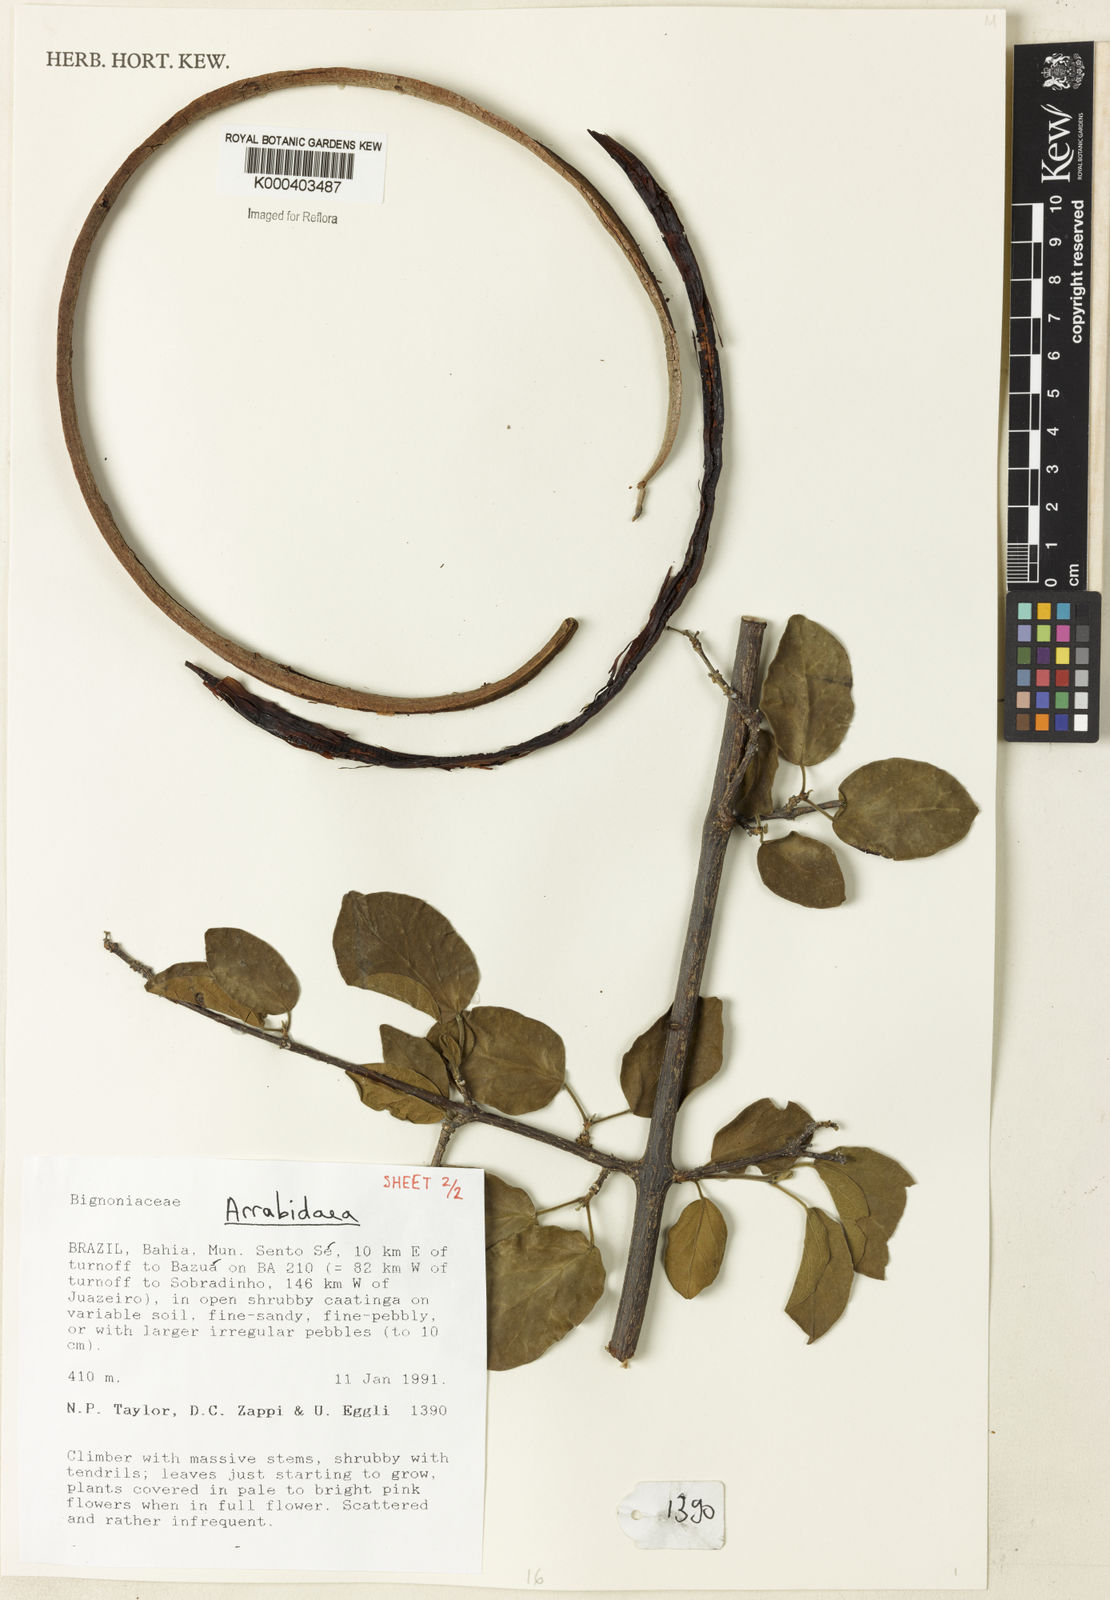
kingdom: Plantae
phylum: Tracheophyta
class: Magnoliopsida
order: Rosales
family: Rhamnaceae
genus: Arrabidaea
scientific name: Arrabidaea
